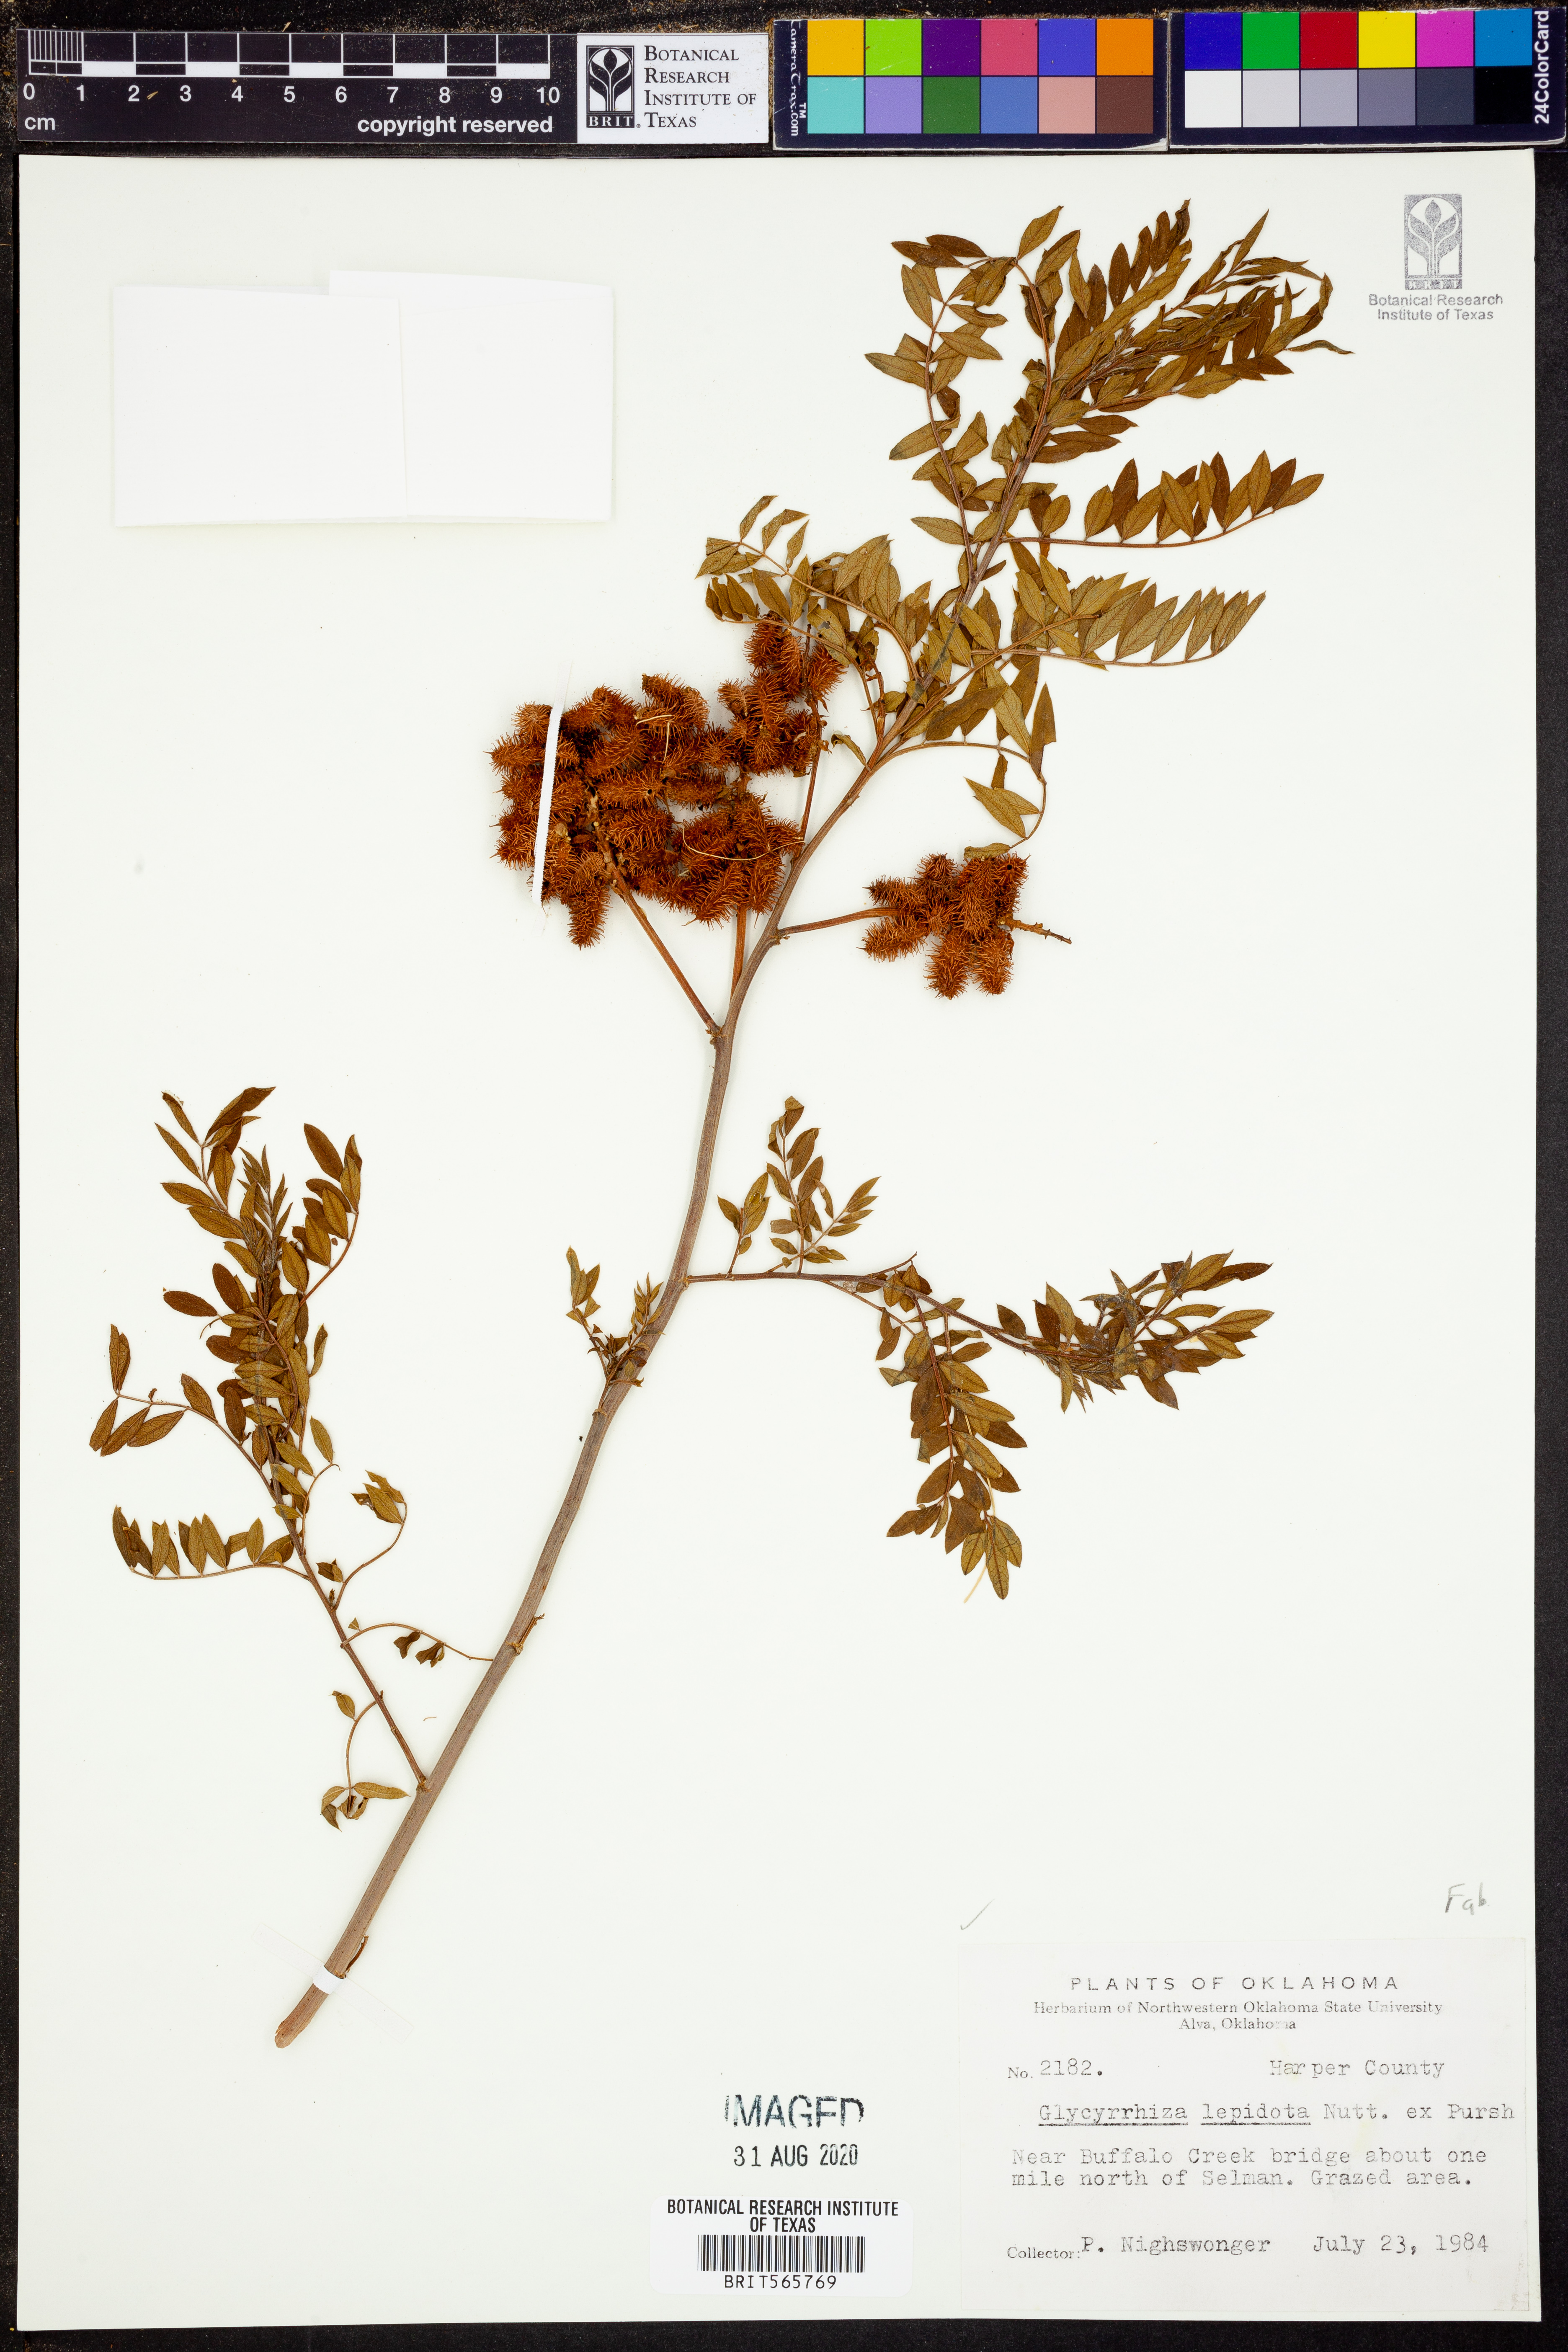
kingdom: Plantae
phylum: Tracheophyta
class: Magnoliopsida
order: Fabales
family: Fabaceae
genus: Glycyrrhiza
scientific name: Glycyrrhiza lepidota
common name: American liquorice
